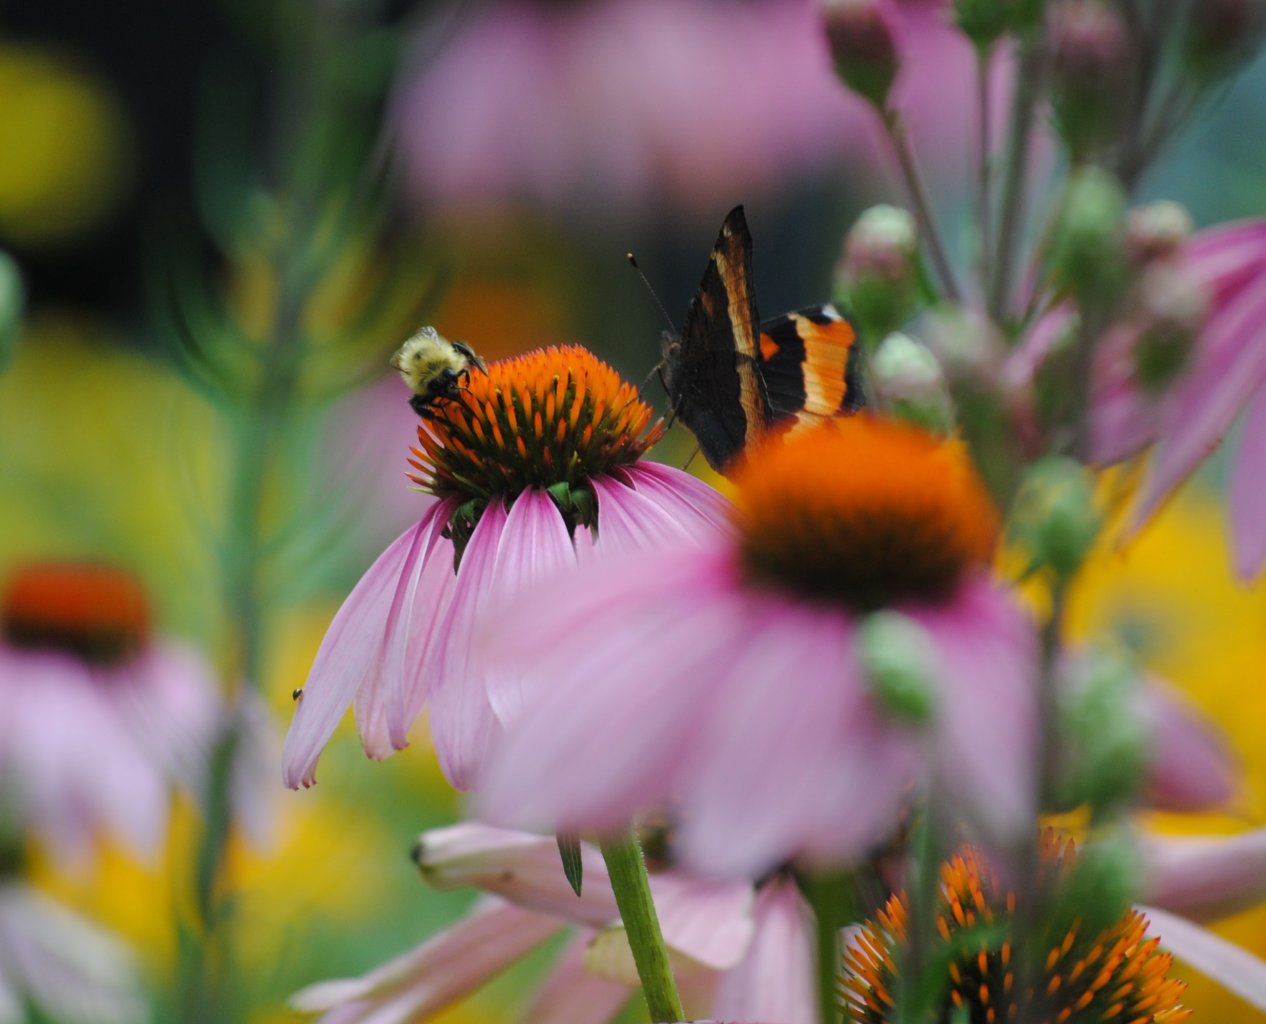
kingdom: Animalia
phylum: Arthropoda
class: Insecta
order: Lepidoptera
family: Nymphalidae
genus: Aglais
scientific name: Aglais milberti
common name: Milbert's Tortoiseshell
